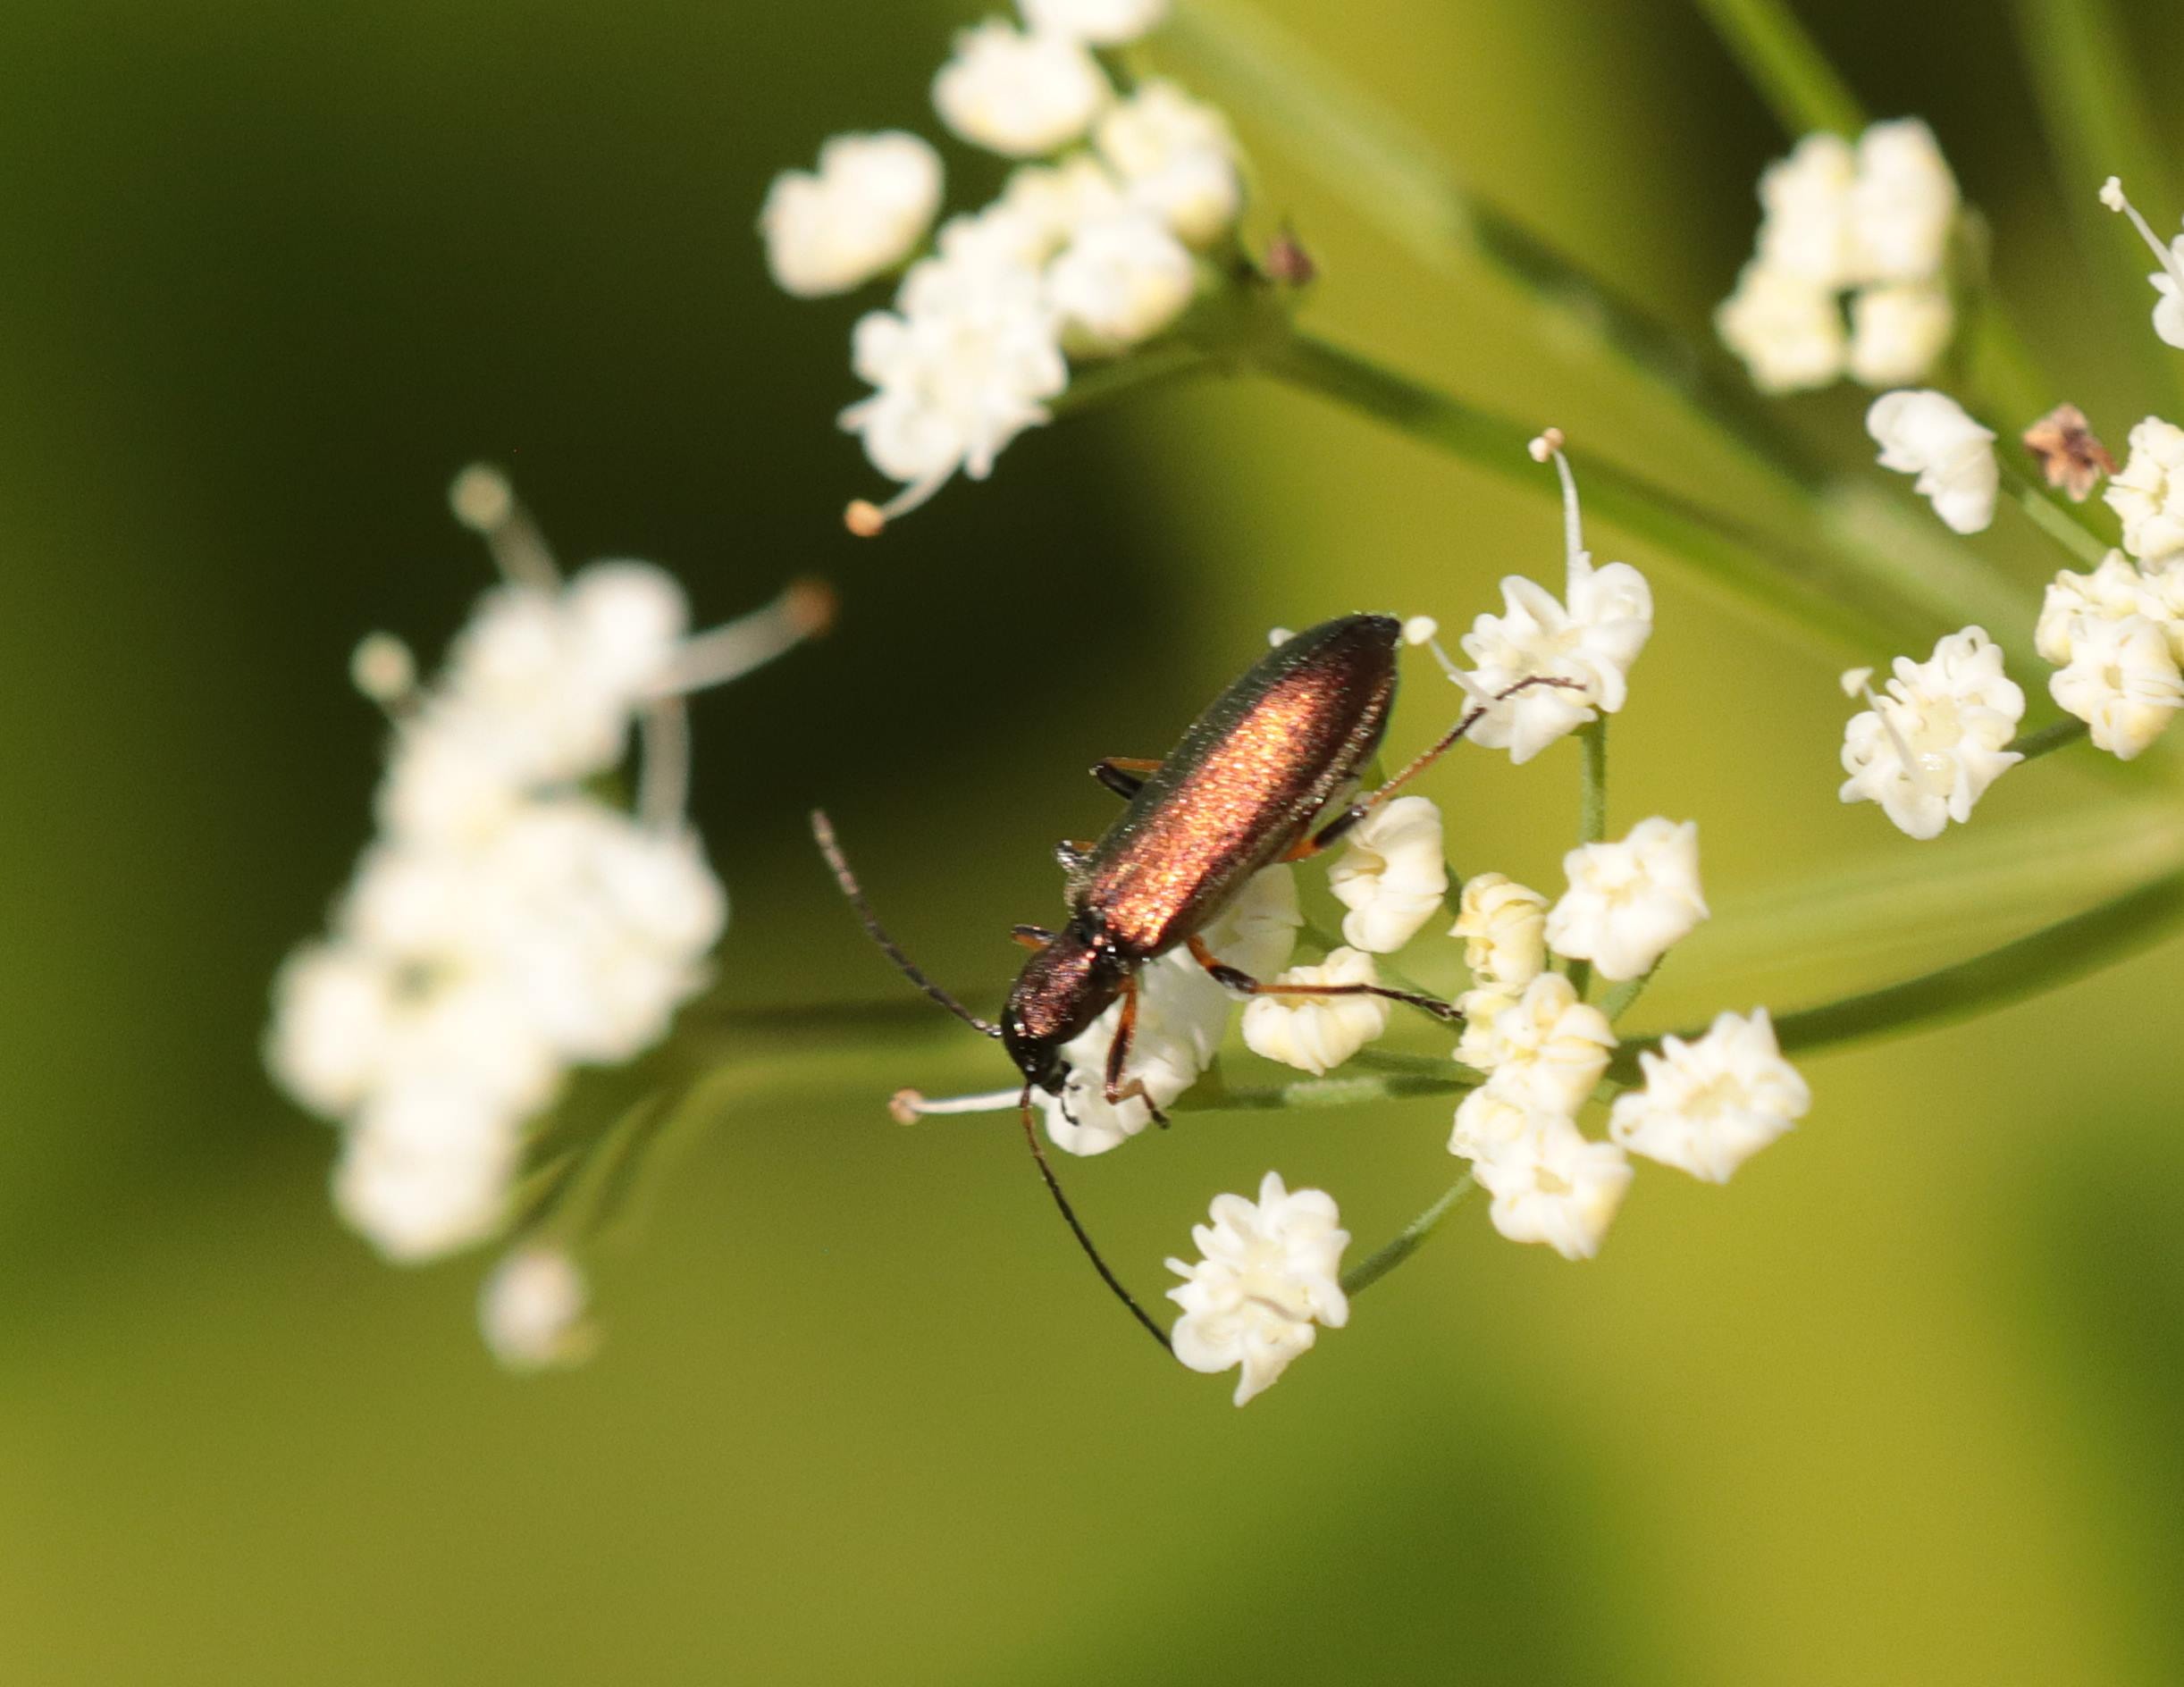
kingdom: Animalia
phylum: Arthropoda
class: Insecta
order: Coleoptera
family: Oedemeridae
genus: Chrysanthia
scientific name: Chrysanthia geniculata
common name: Grøn solbille
